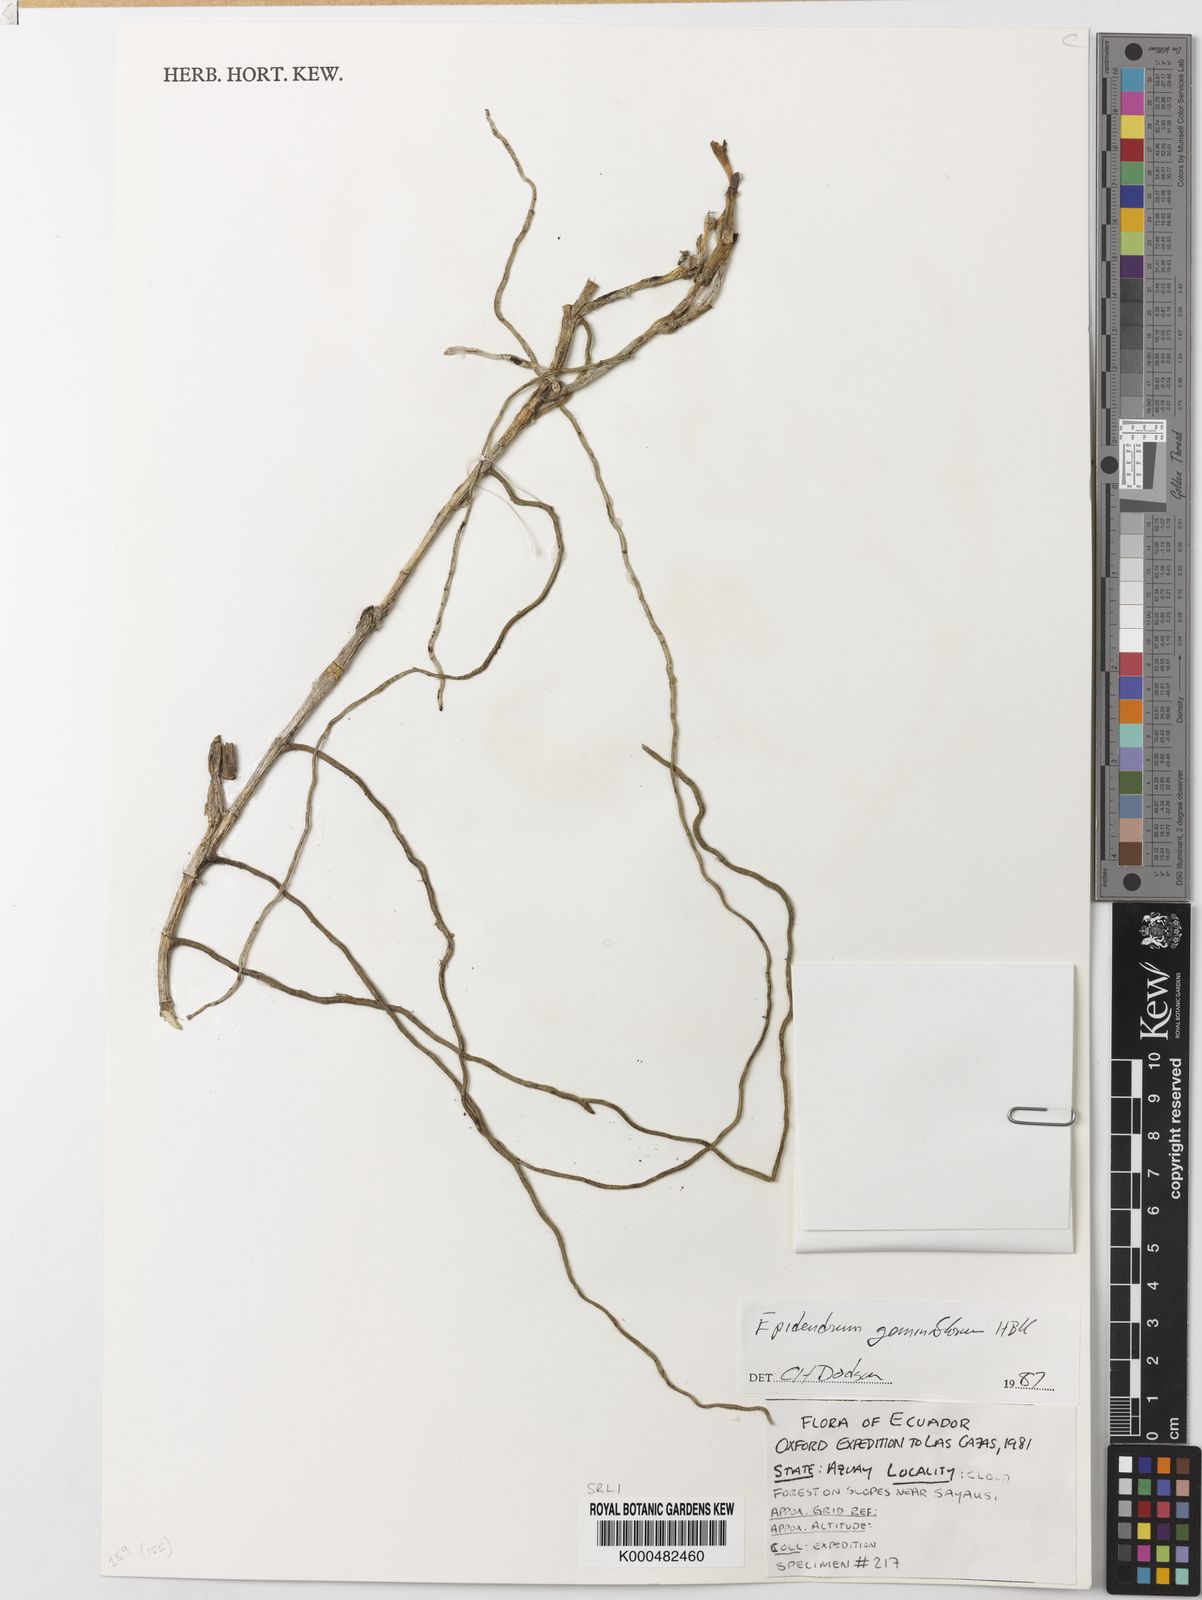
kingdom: Plantae
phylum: Tracheophyta
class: Liliopsida
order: Asparagales
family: Orchidaceae
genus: Epidendrum
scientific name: Epidendrum geminiflorum
